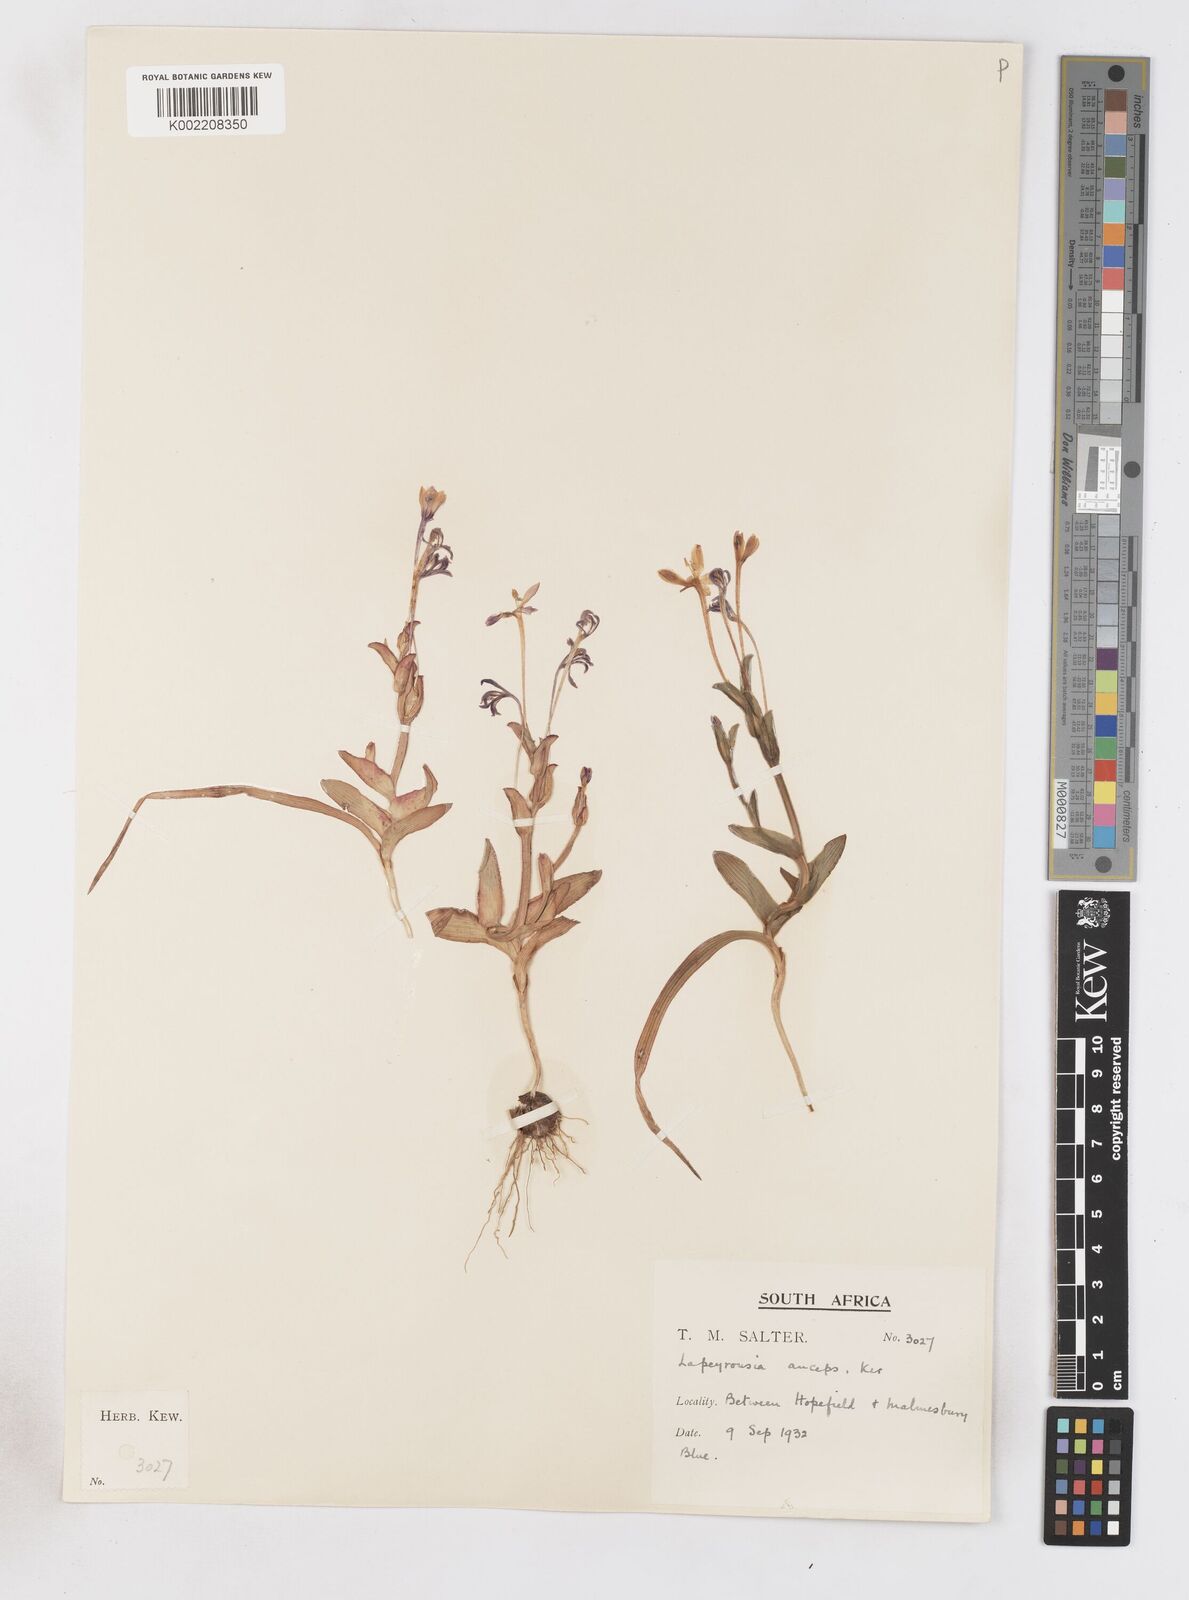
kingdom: Plantae
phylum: Tracheophyta
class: Liliopsida
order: Asparagales
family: Iridaceae
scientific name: Iridaceae
